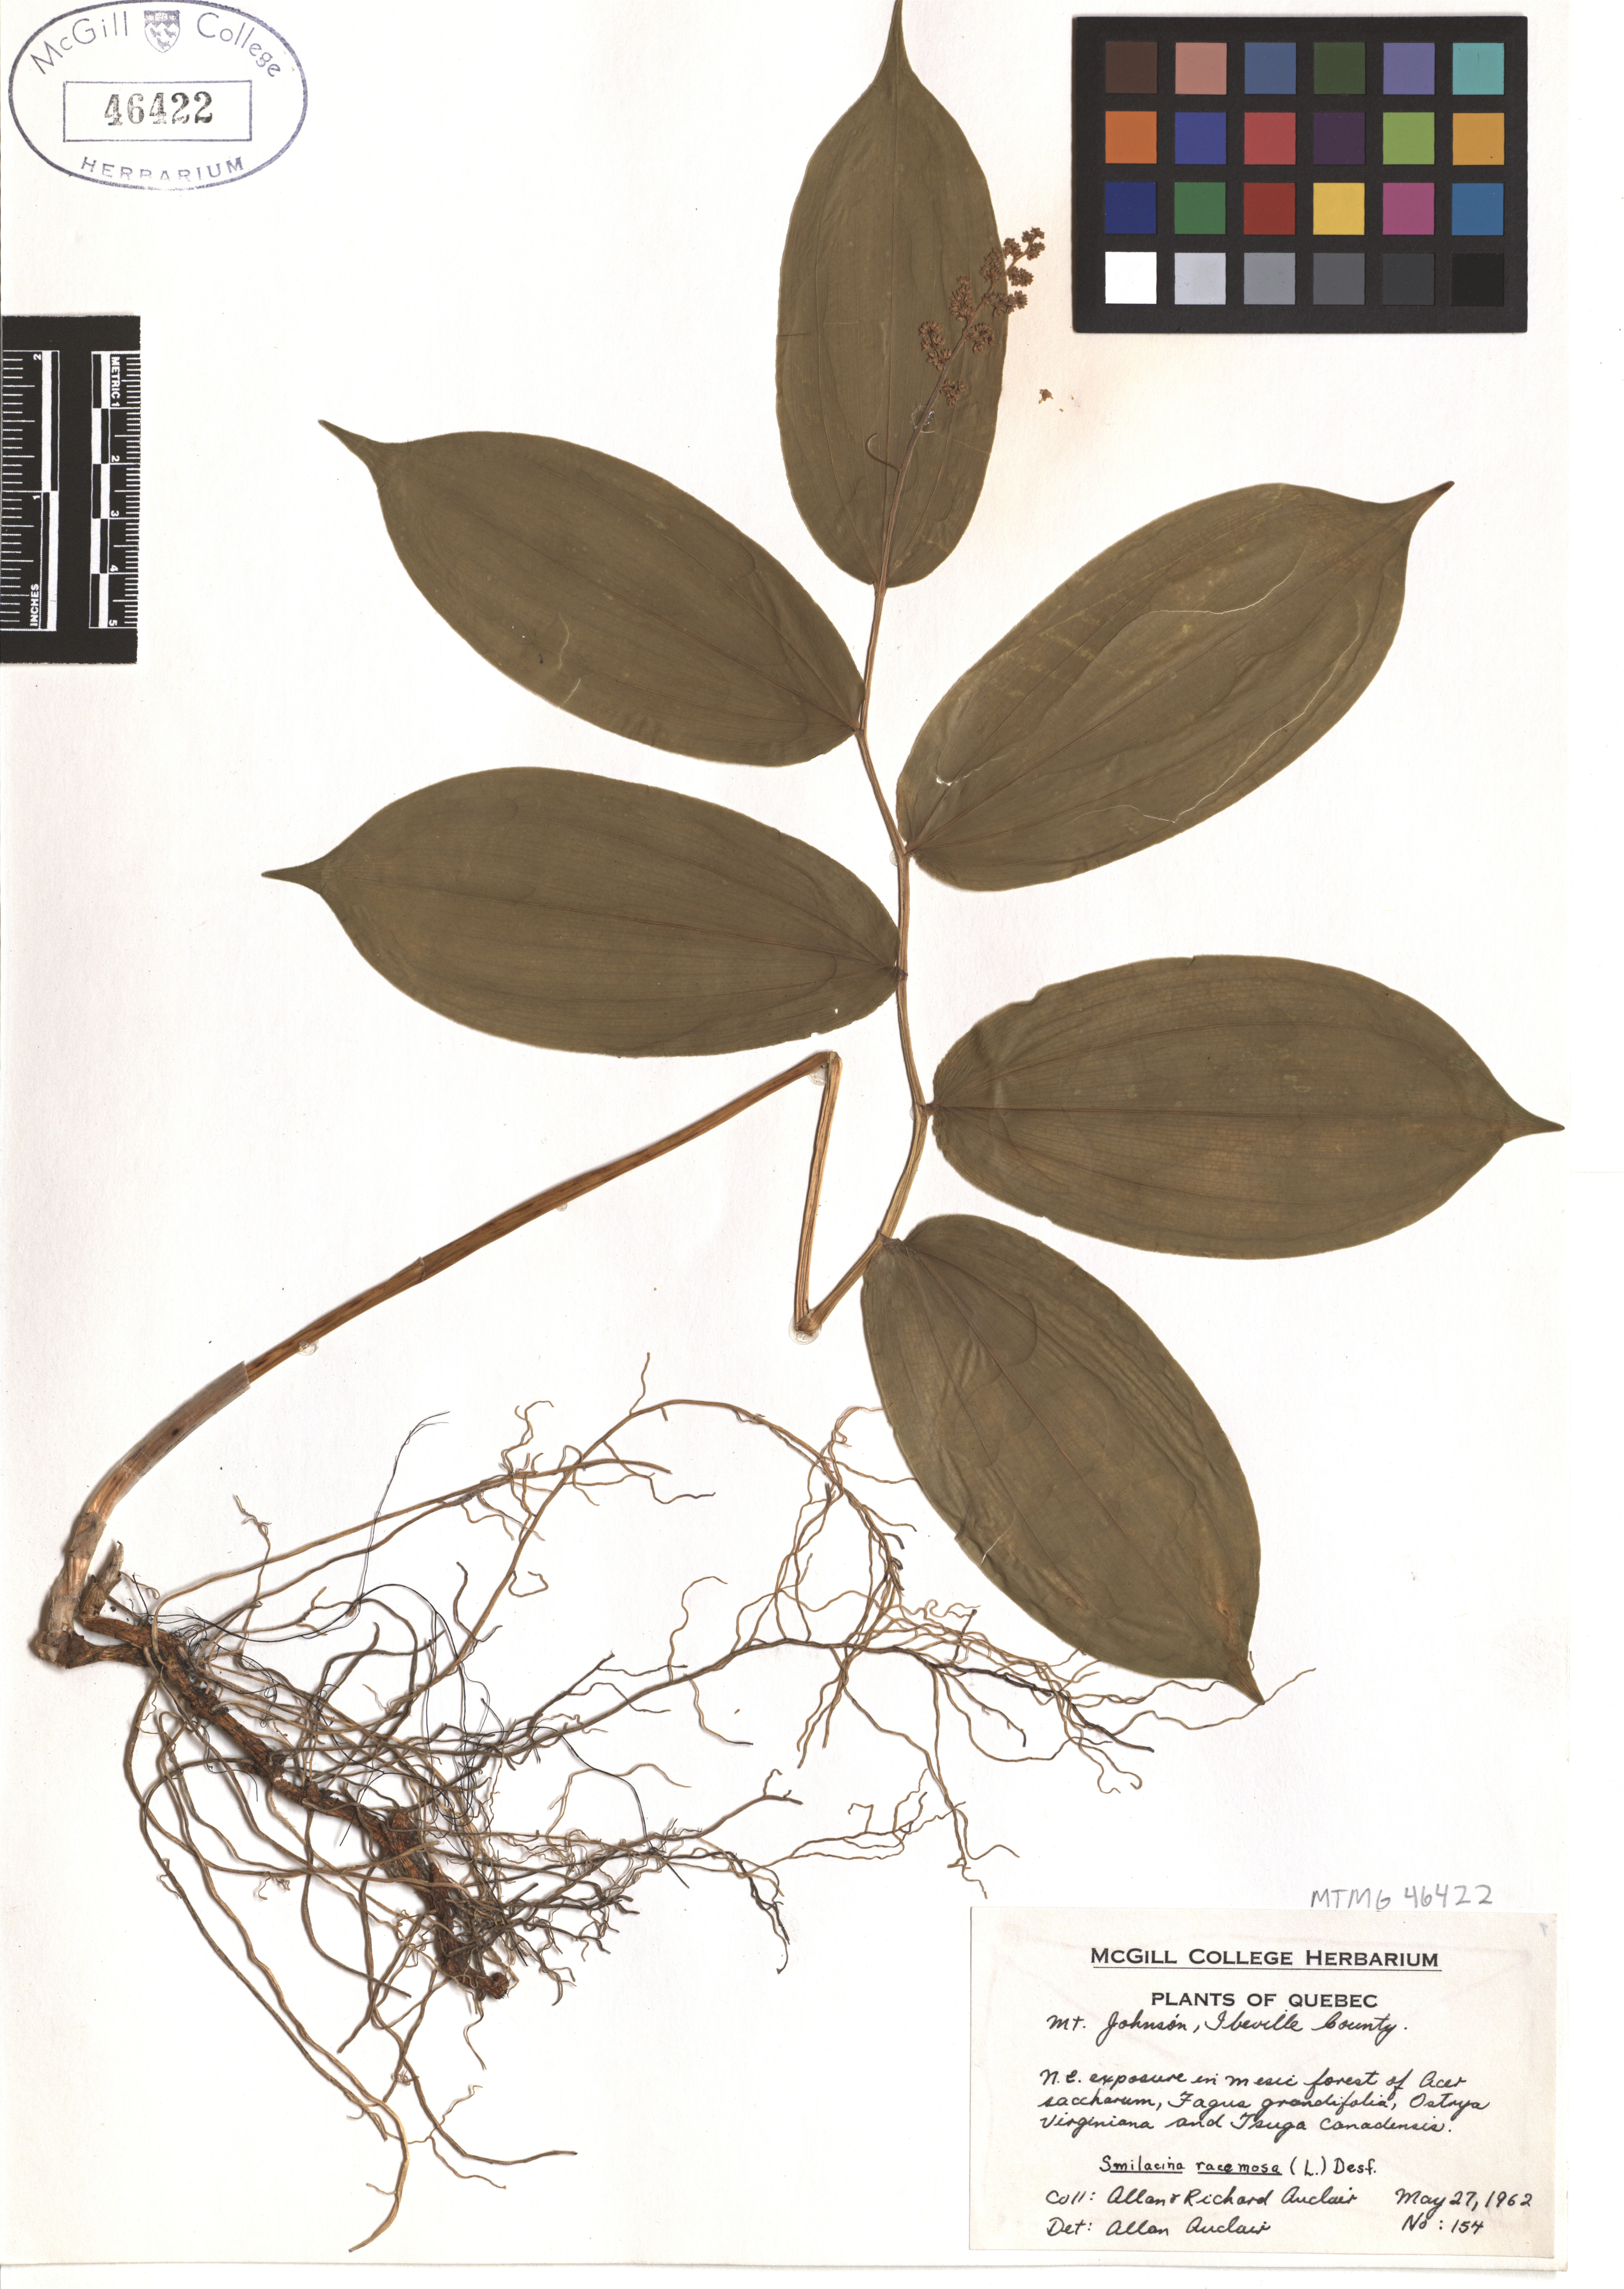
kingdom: Plantae
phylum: Tracheophyta
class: Liliopsida
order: Asparagales
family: Asparagaceae
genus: Maianthemum
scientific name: Maianthemum racemosum
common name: False spikenard
